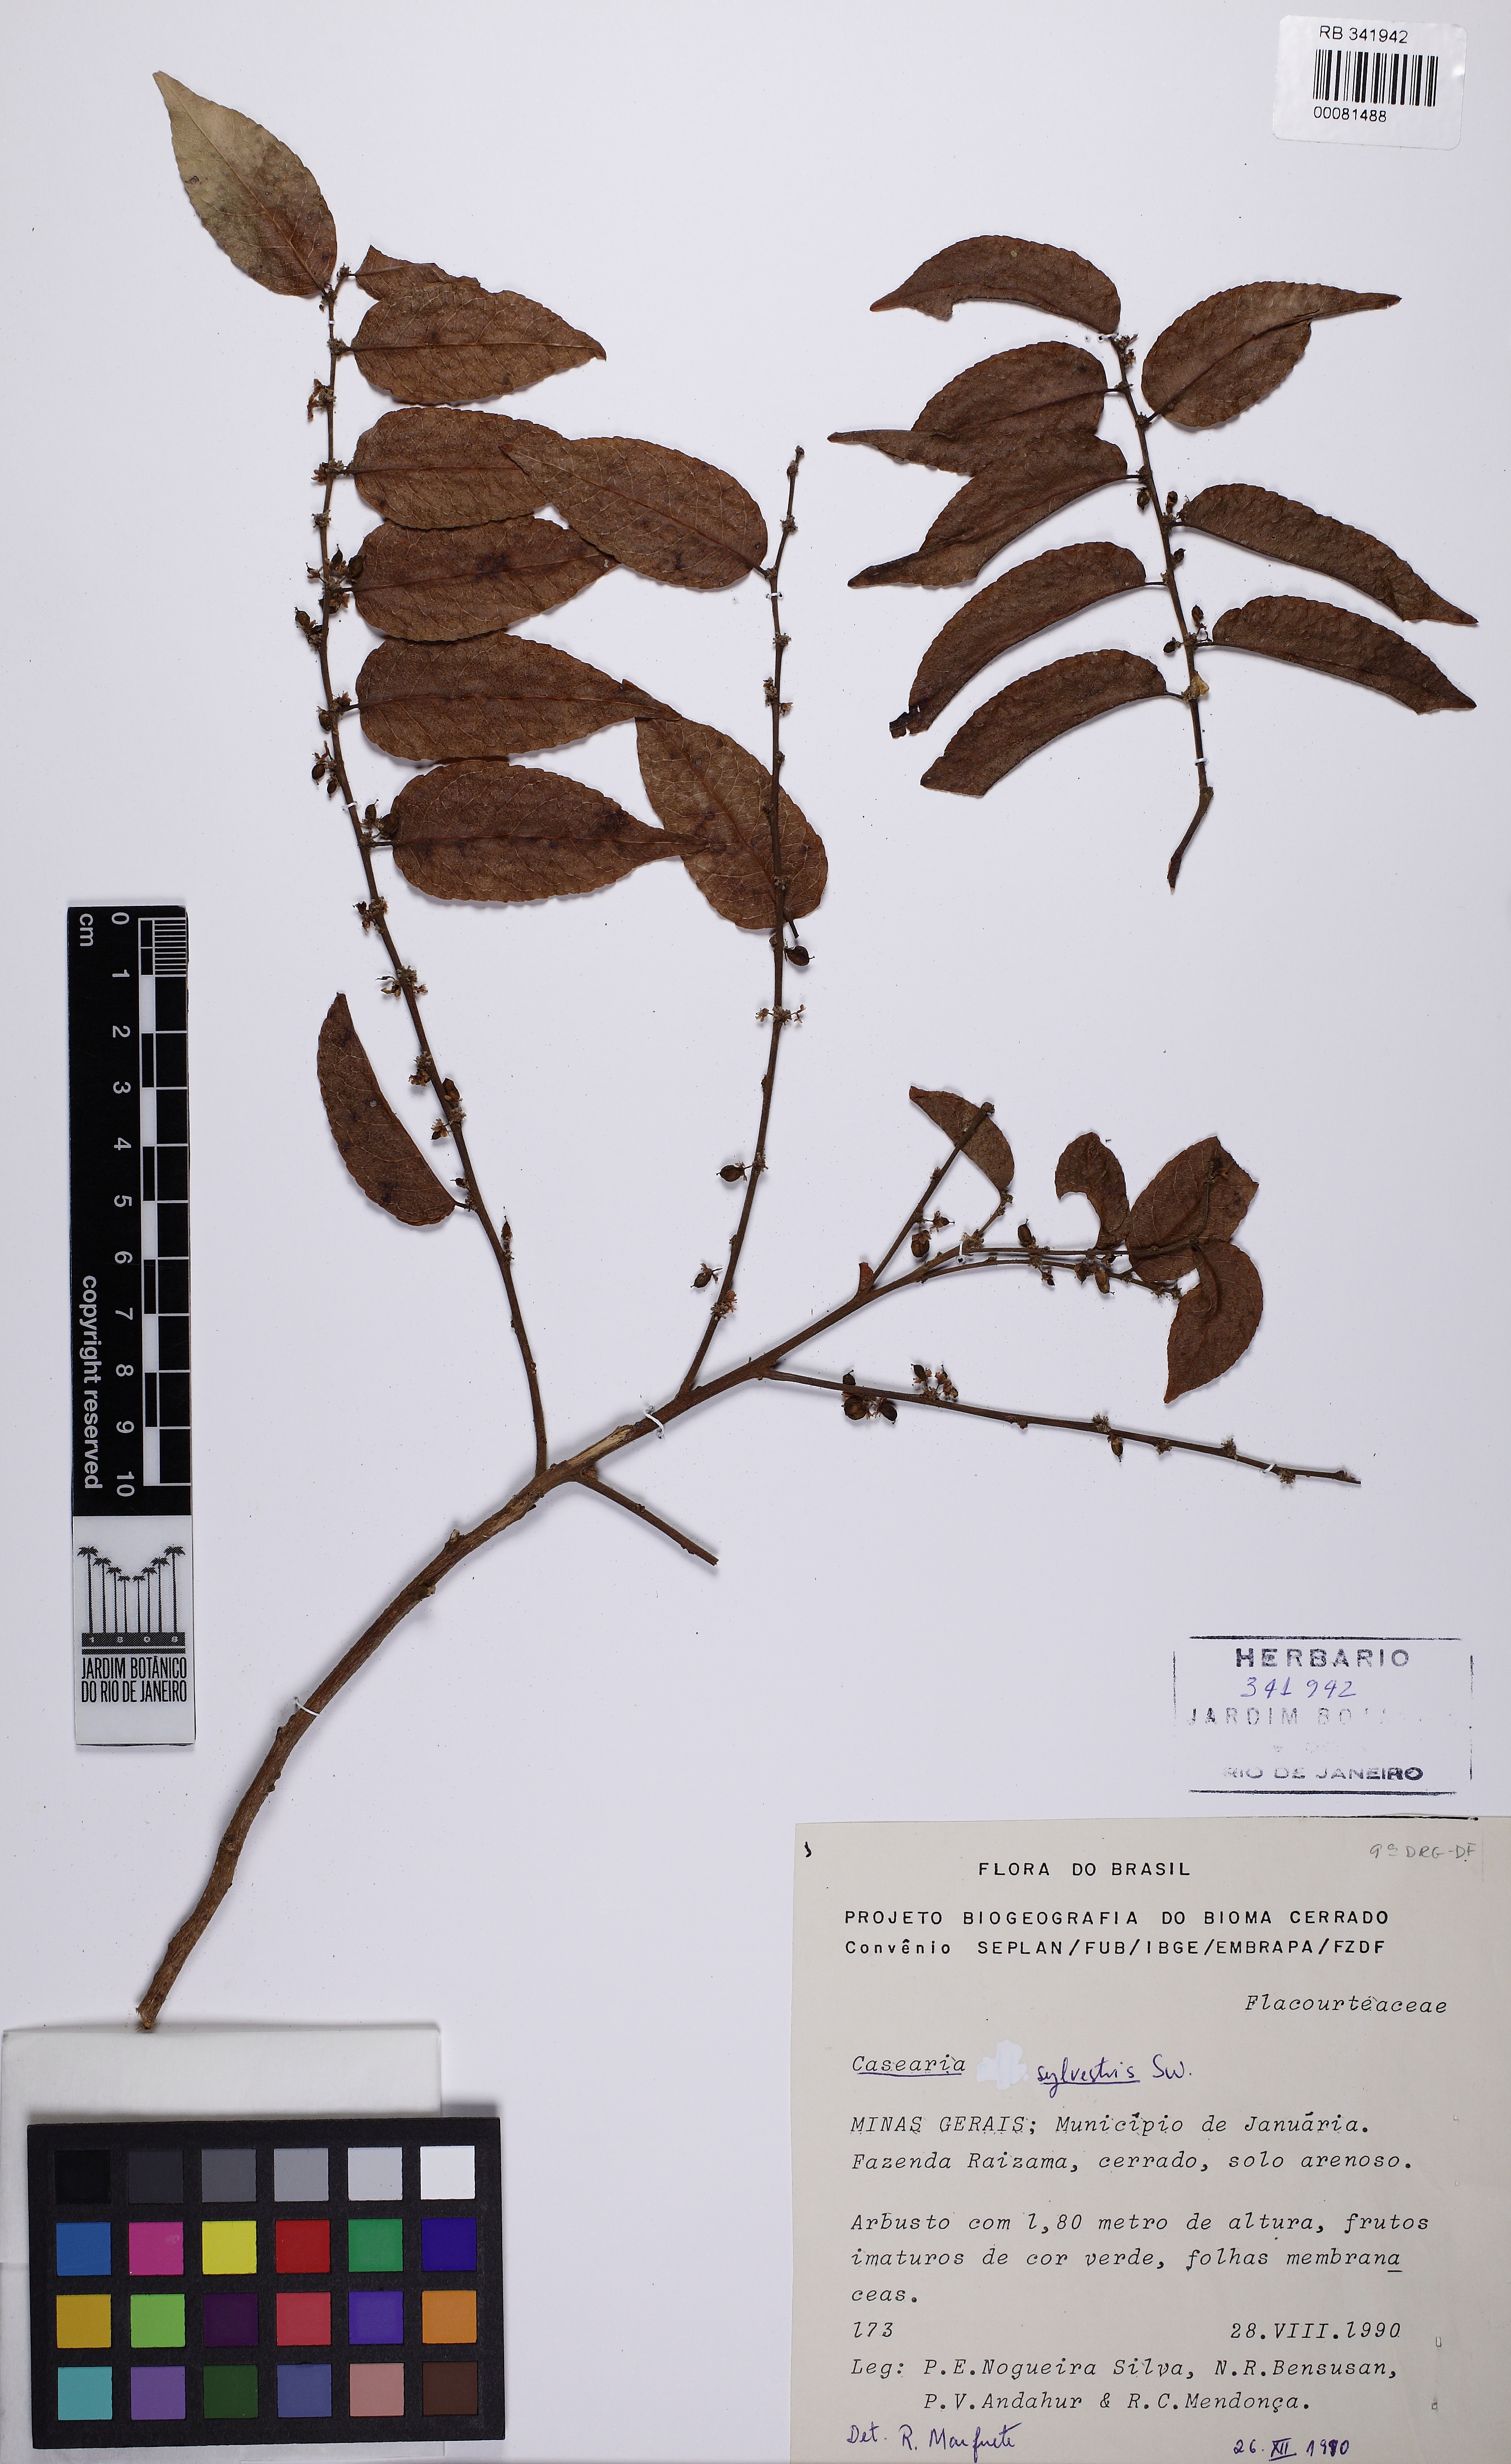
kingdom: Plantae
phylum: Tracheophyta
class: Magnoliopsida
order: Malpighiales
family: Salicaceae
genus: Casearia
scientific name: Casearia sylvestris
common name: Wild sage
